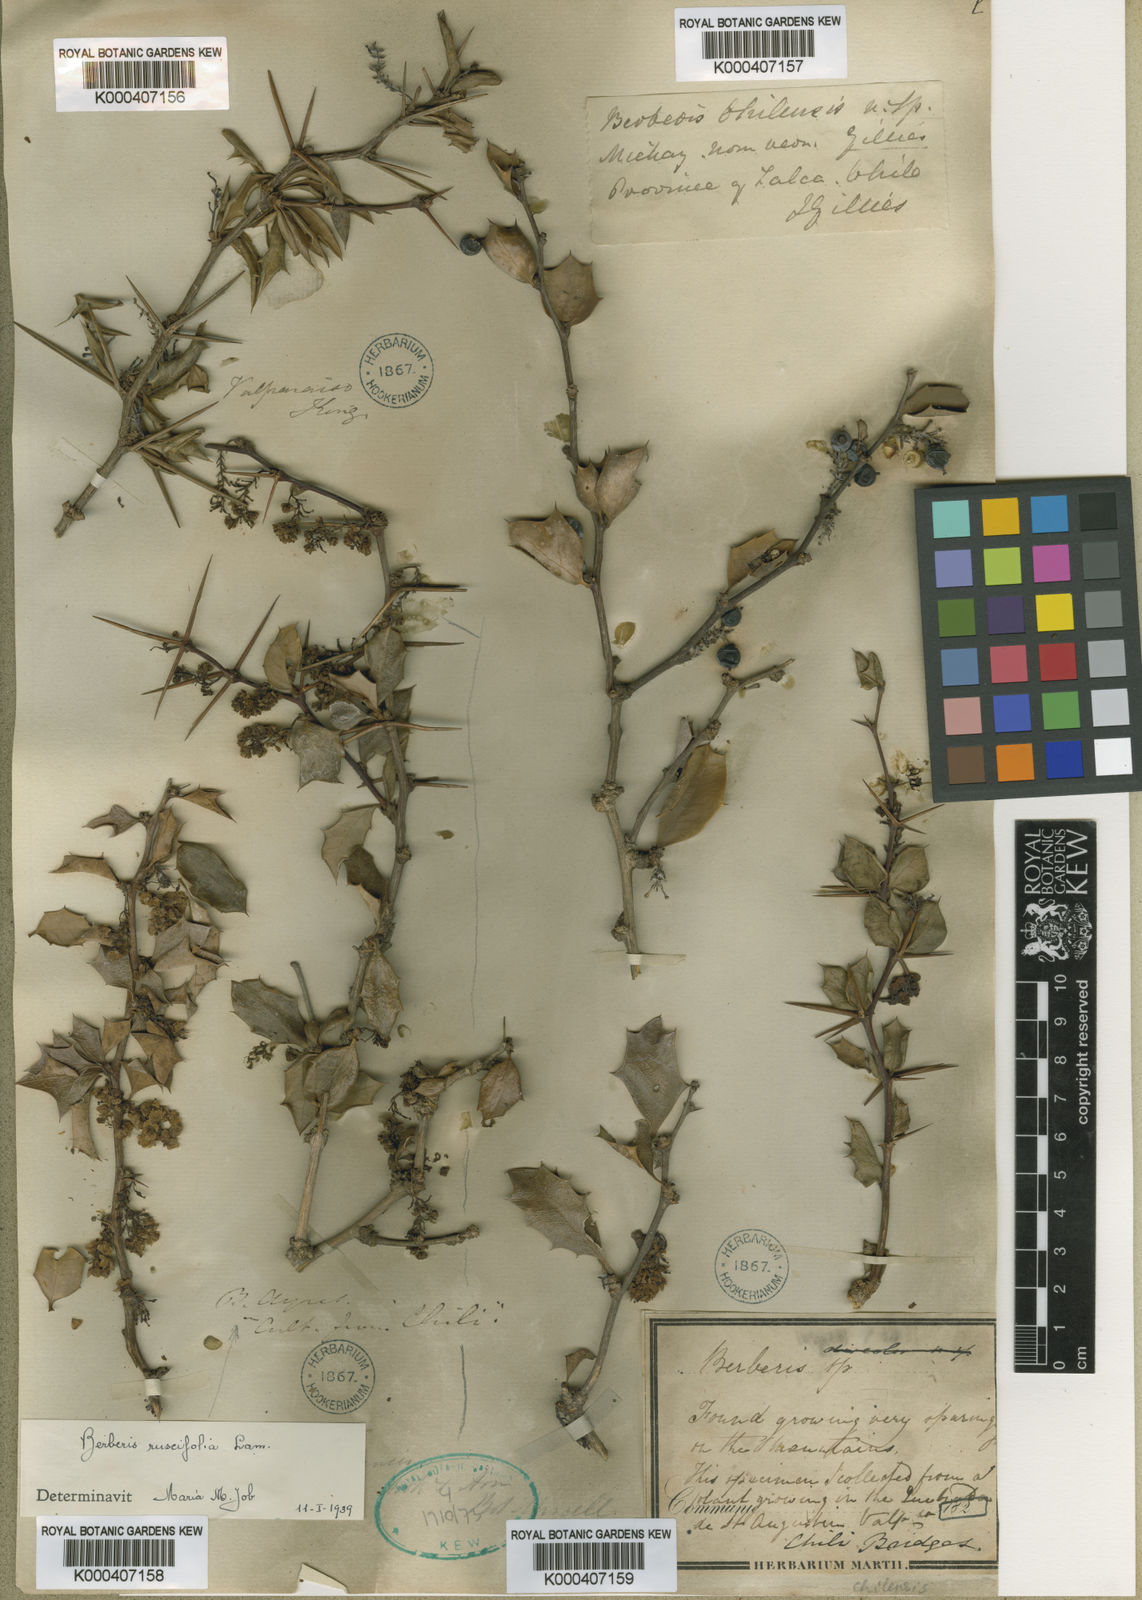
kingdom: Plantae
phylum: Tracheophyta
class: Magnoliopsida
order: Ranunculales
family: Berberidaceae
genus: Berberis
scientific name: Berberis
